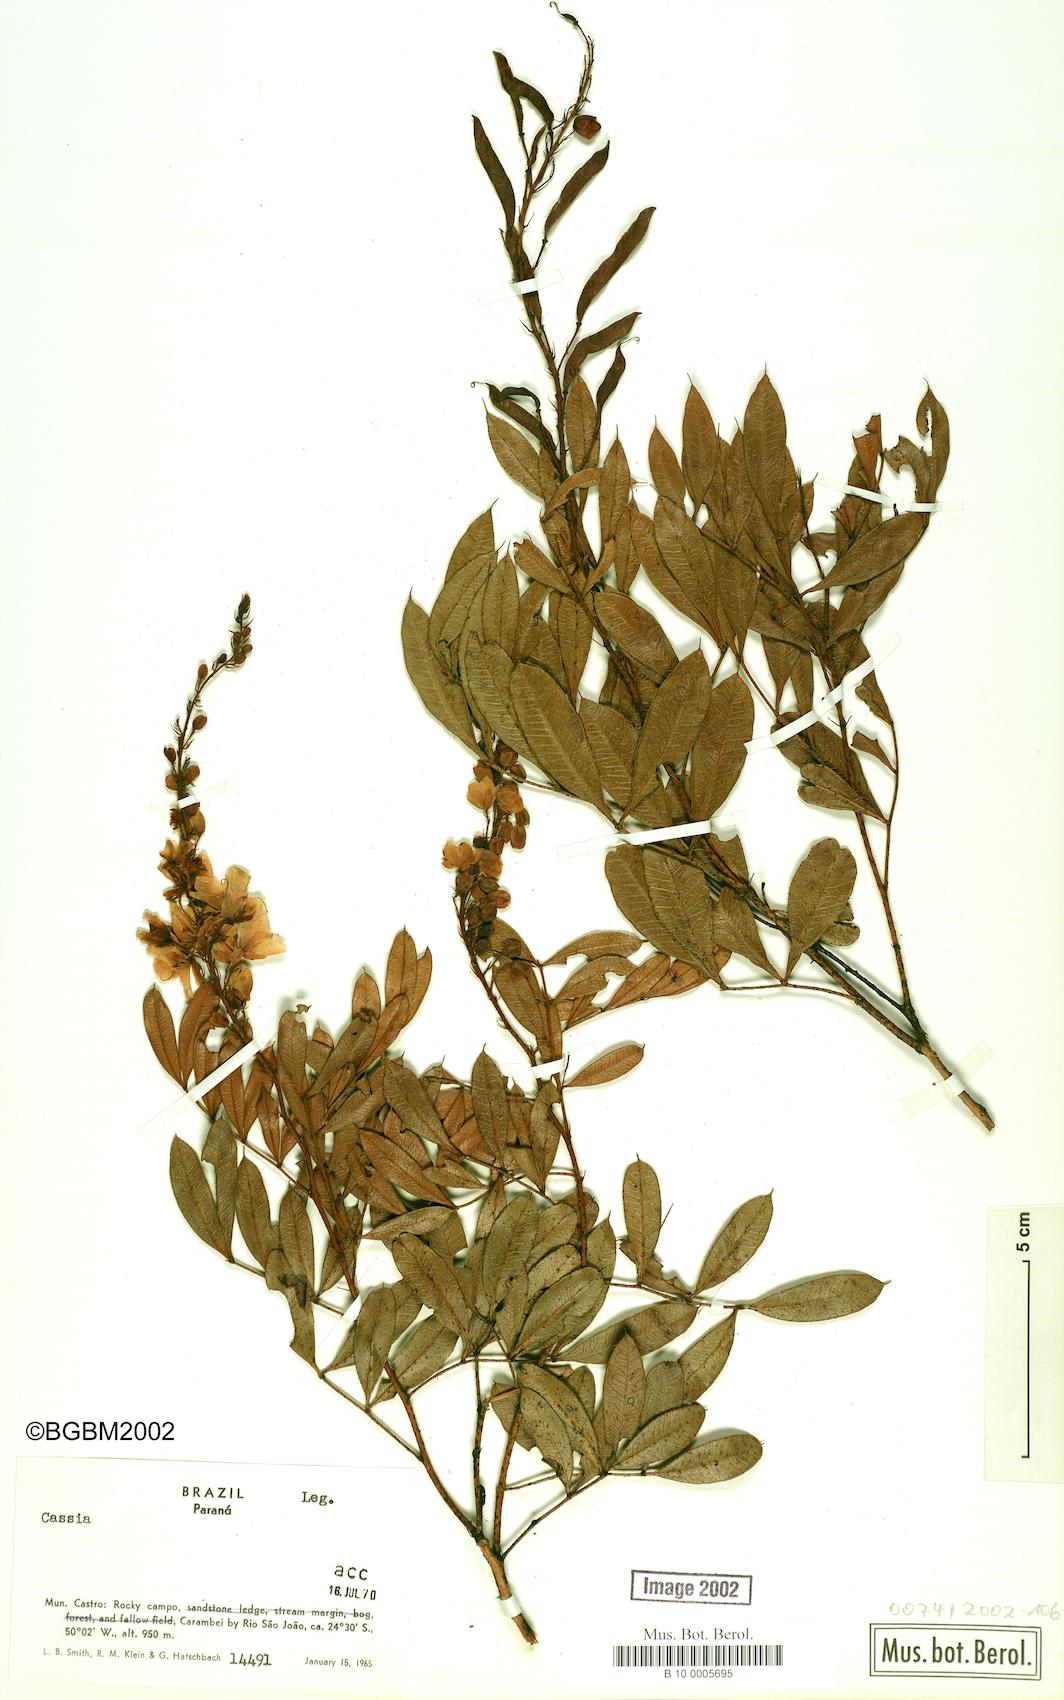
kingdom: Plantae
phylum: Tracheophyta
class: Magnoliopsida
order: Fabales
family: Fabaceae
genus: Cassia
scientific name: Cassia
